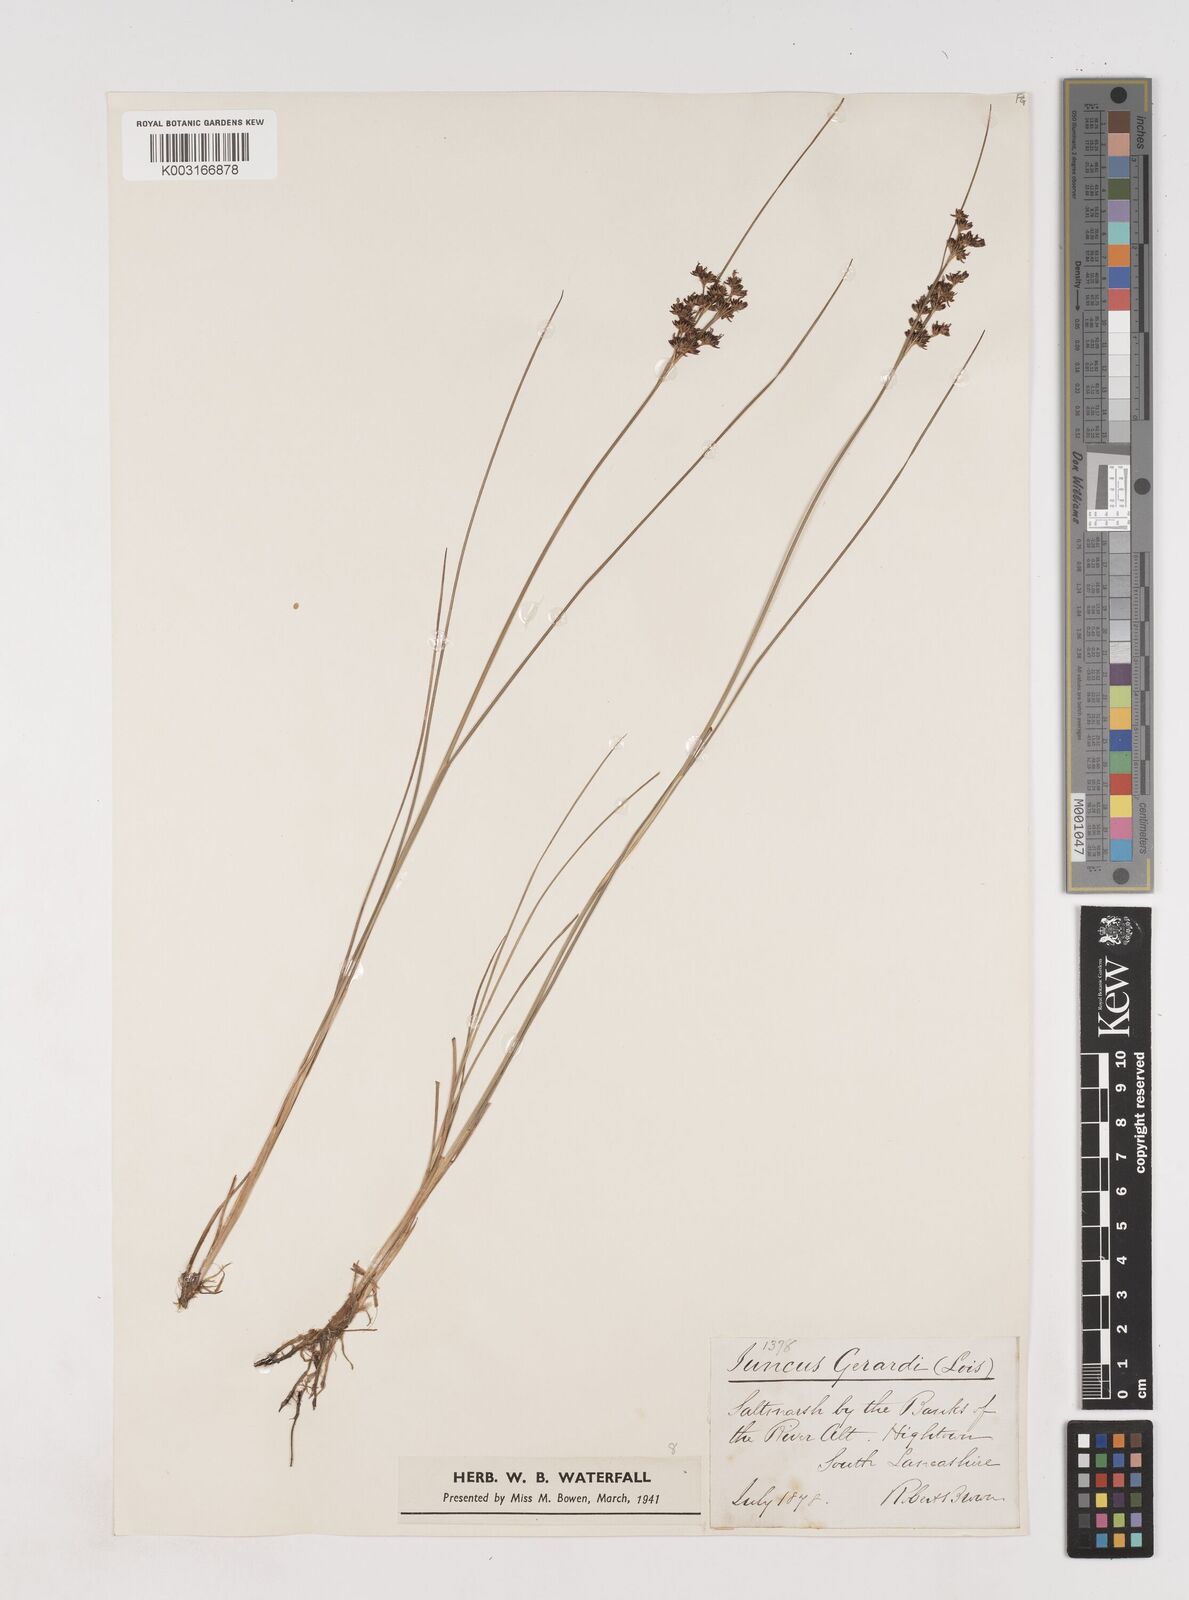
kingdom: Plantae
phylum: Tracheophyta
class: Liliopsida
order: Poales
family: Juncaceae
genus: Juncus
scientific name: Juncus gerardi
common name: Saltmarsh rush
